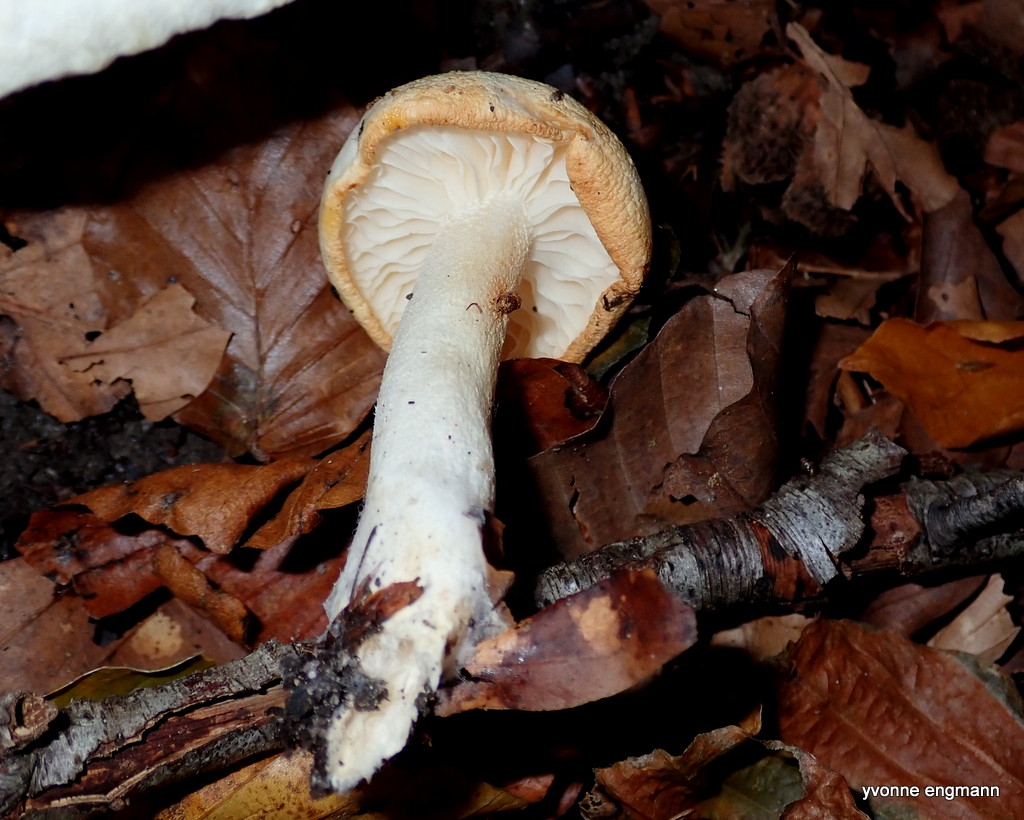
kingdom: Fungi
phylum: Basidiomycota
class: Agaricomycetes
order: Agaricales
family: Hygrophoraceae
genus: Hygrophorus
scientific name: Hygrophorus
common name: sneglehat
